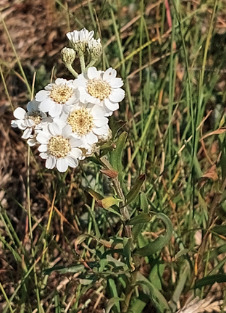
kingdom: Plantae
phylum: Tracheophyta
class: Magnoliopsida
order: Asterales
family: Asteraceae
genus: Achillea
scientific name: Achillea ptarmica
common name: Nyse-røllike
